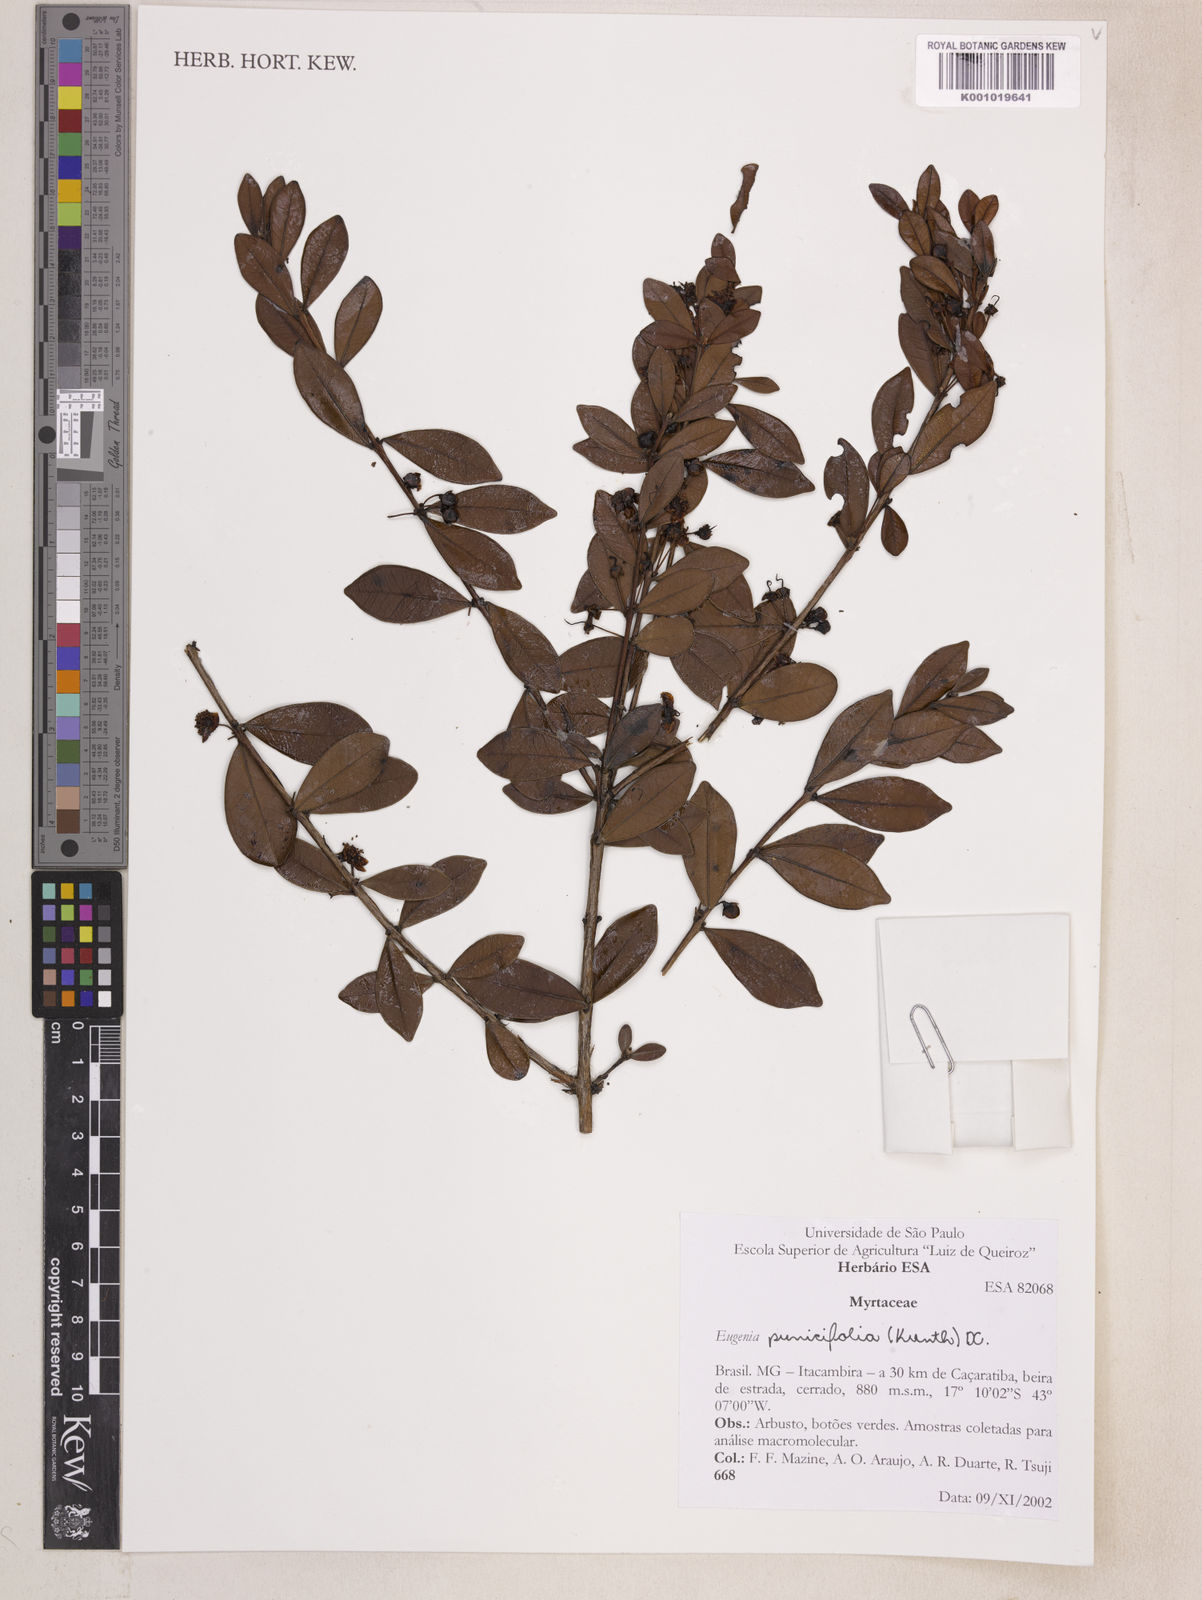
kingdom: Plantae
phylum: Tracheophyta
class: Magnoliopsida
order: Myrtales
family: Myrtaceae
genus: Eugenia
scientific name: Eugenia punicifolia
